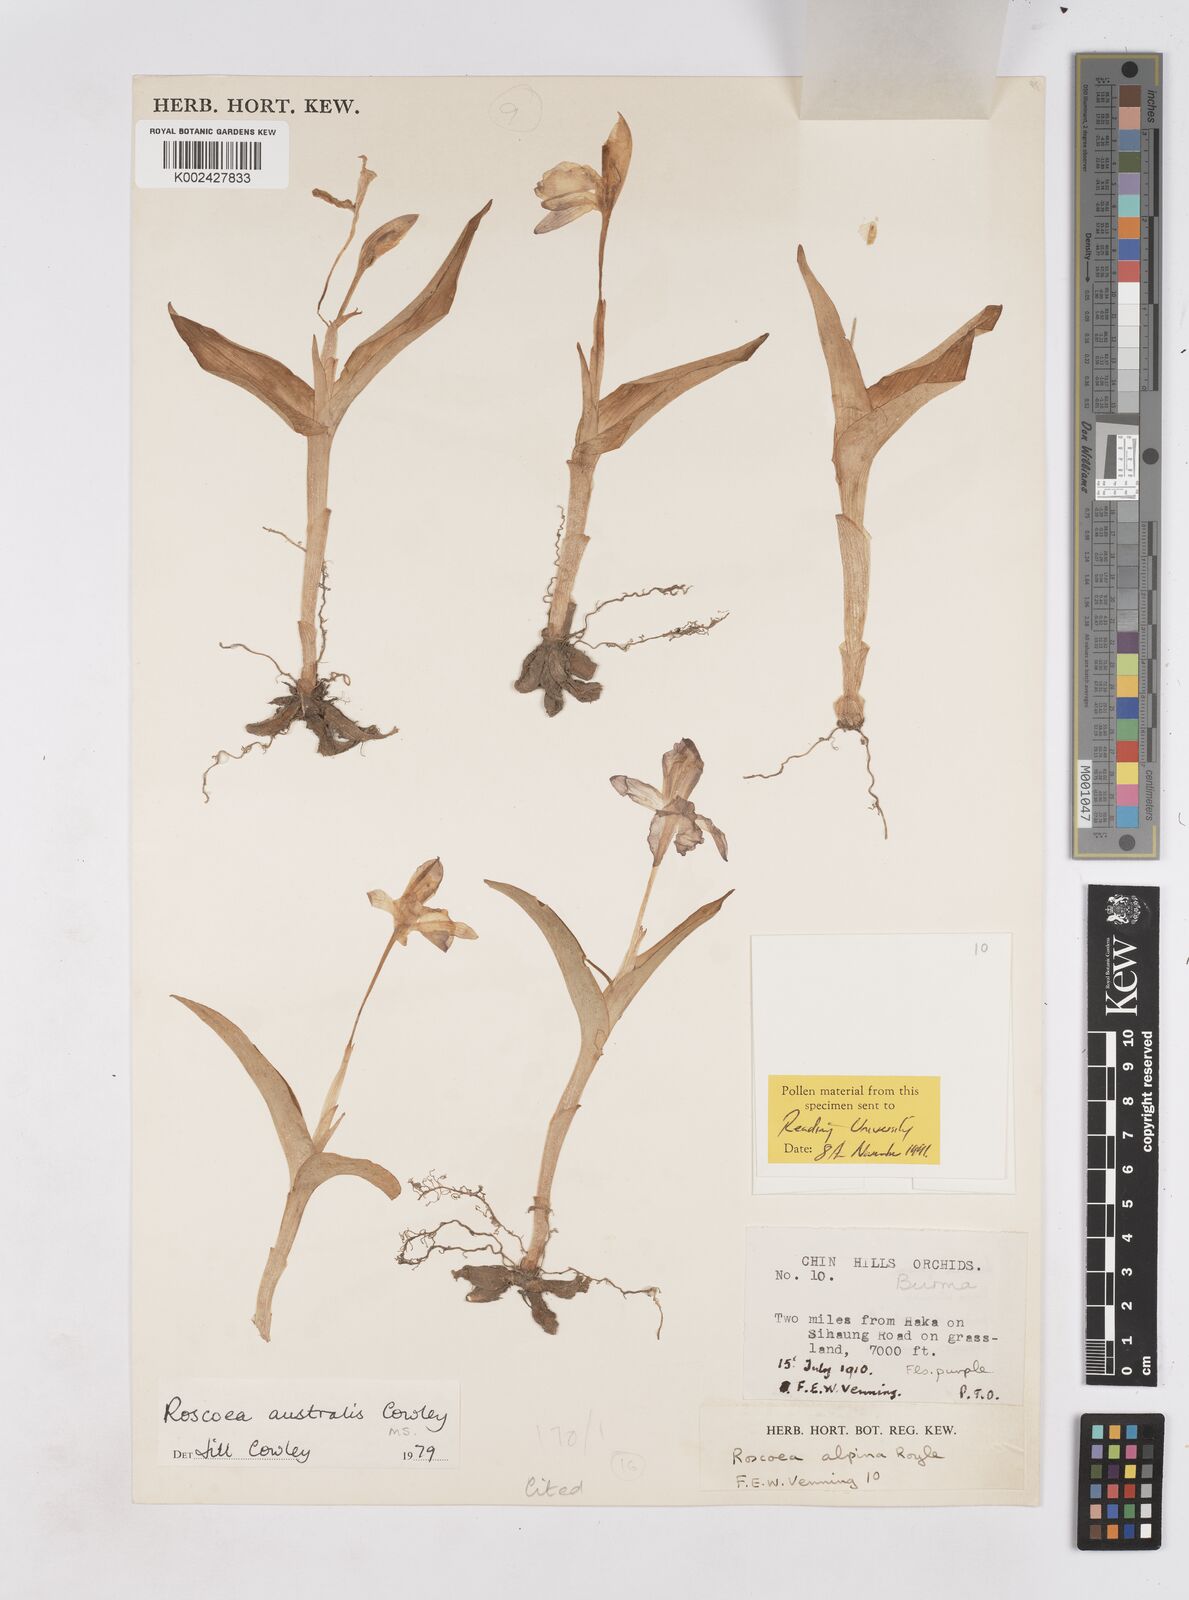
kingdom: Plantae
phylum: Tracheophyta
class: Liliopsida
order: Zingiberales
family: Zingiberaceae
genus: Roscoea
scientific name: Roscoea australis
